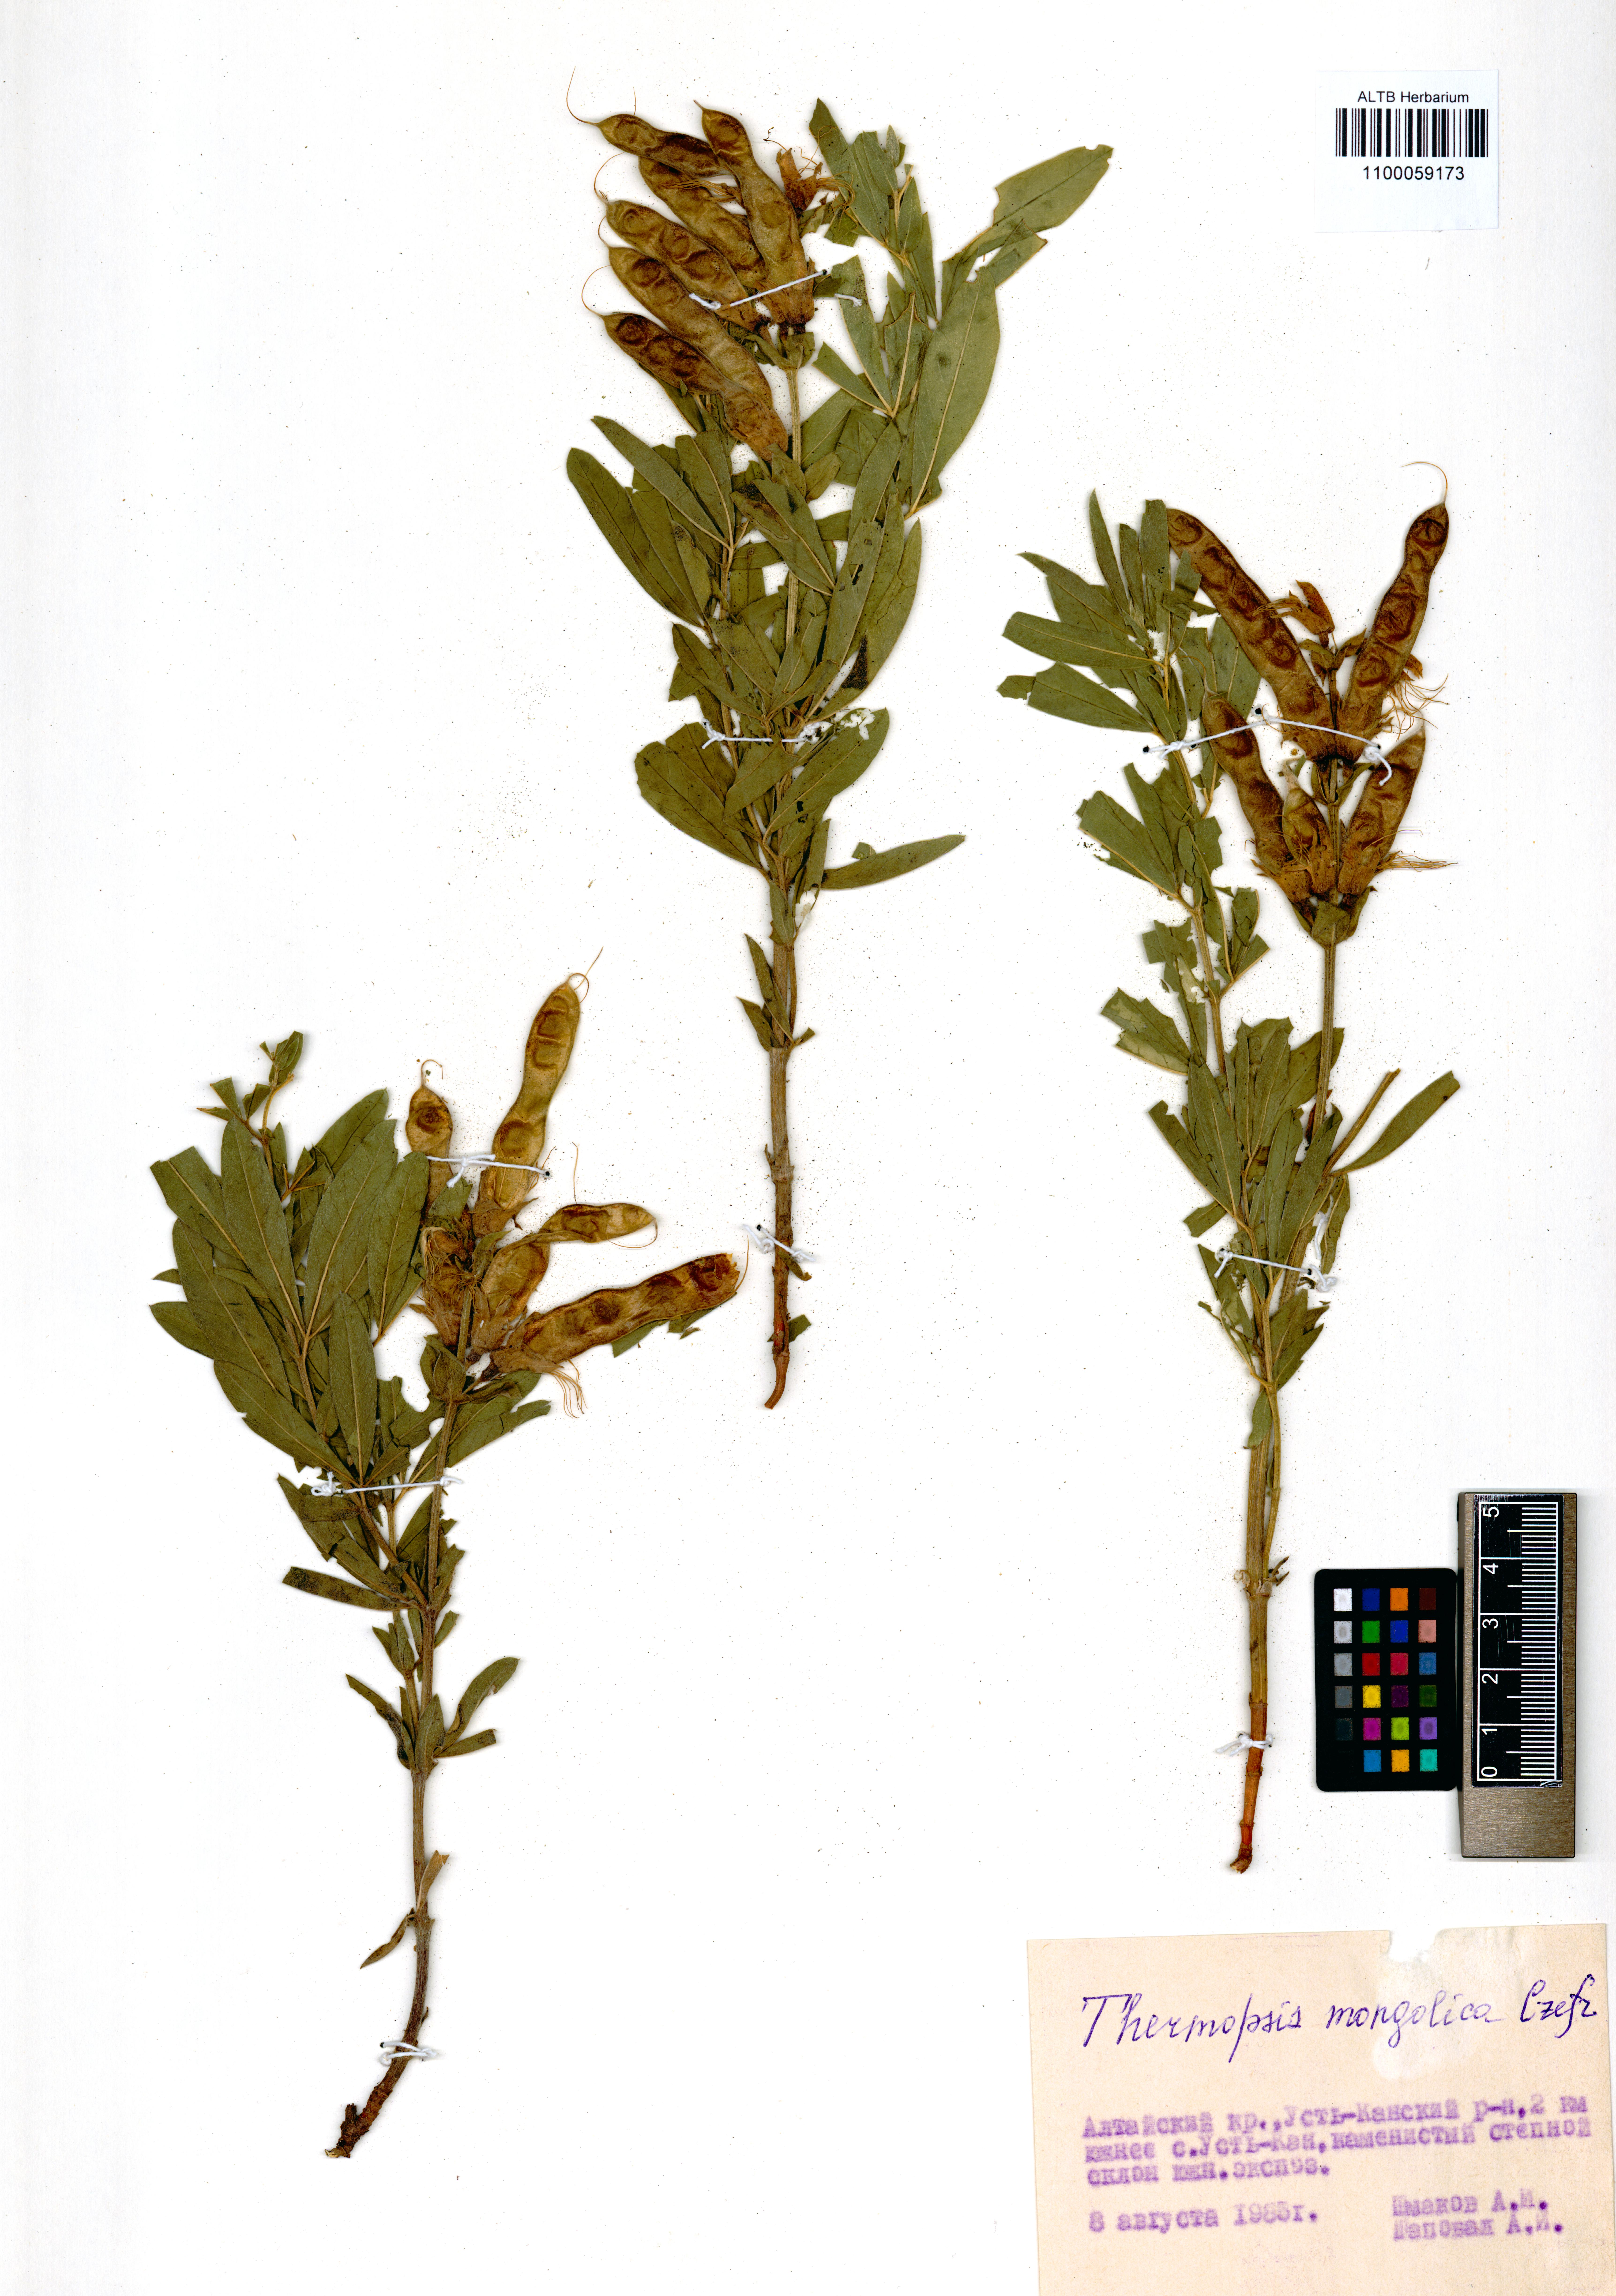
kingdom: Plantae
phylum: Tracheophyta
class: Magnoliopsida
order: Fabales
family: Fabaceae
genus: Thermopsis
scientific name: Thermopsis mongolica
